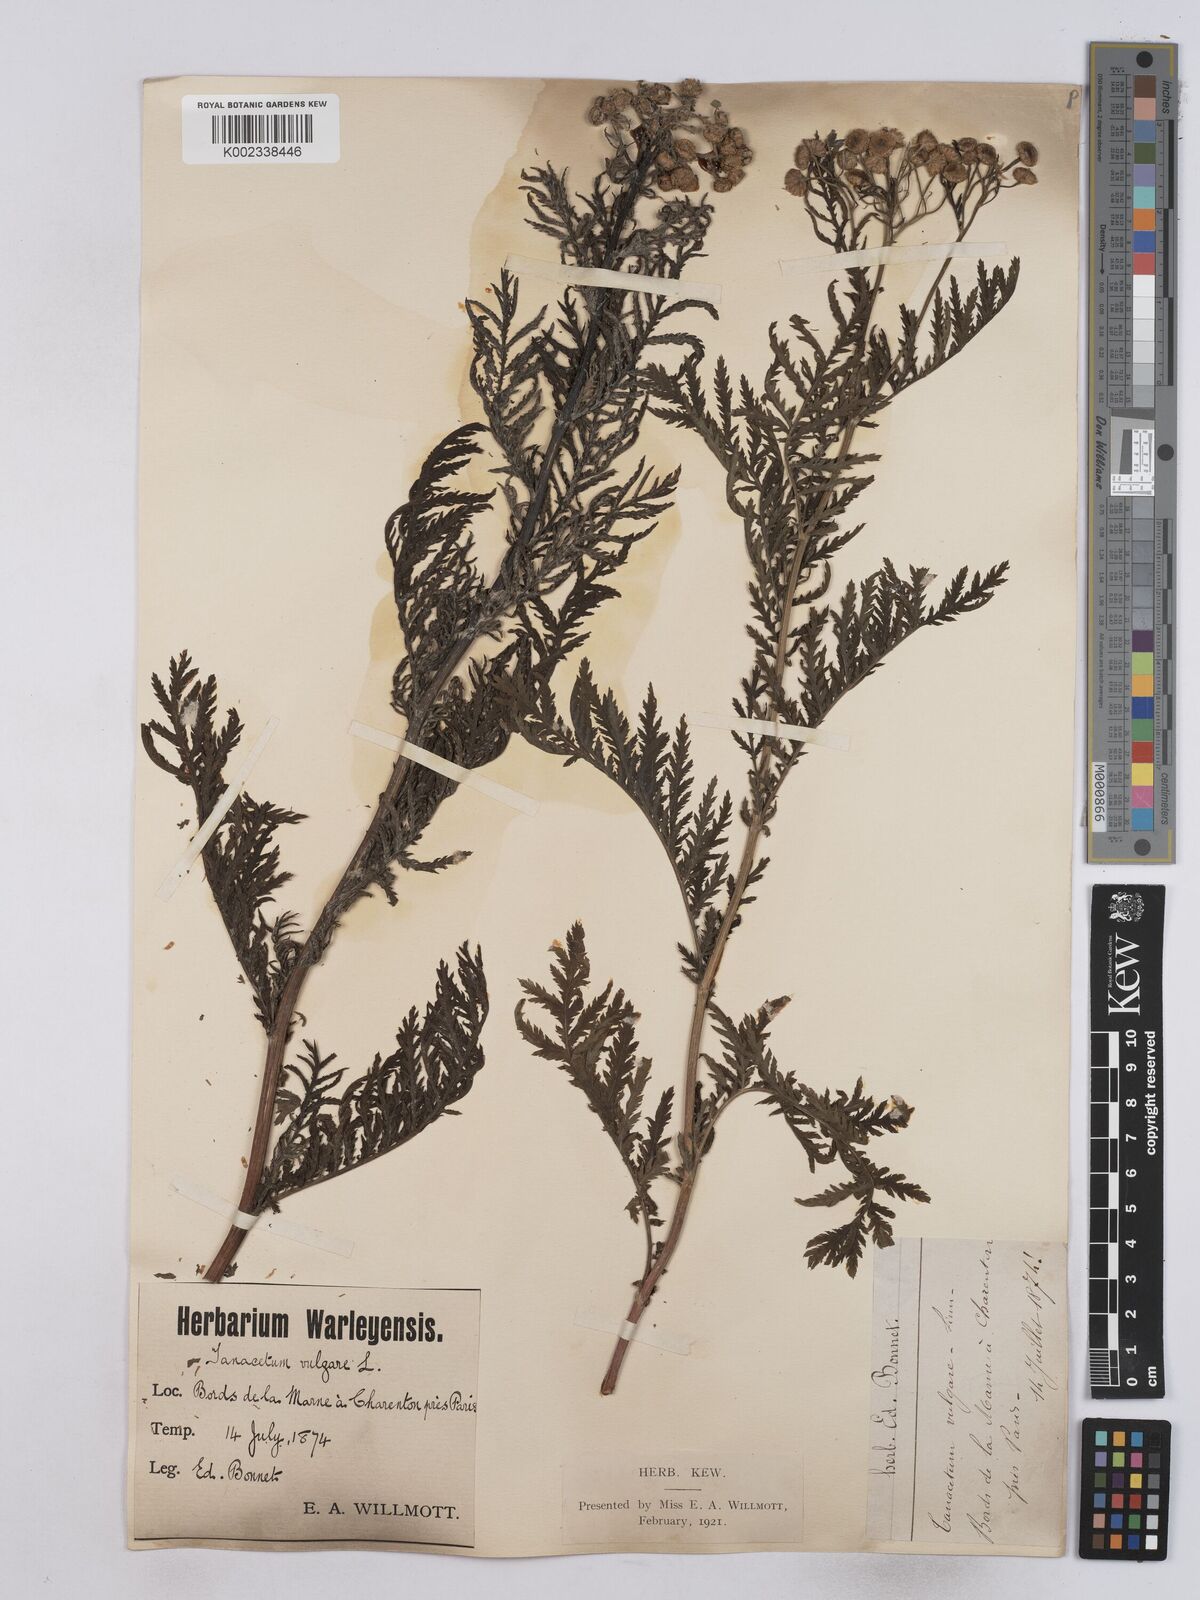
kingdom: Plantae
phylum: Tracheophyta
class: Magnoliopsida
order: Asterales
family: Asteraceae
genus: Tanacetum
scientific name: Tanacetum vulgare
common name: Common tansy
